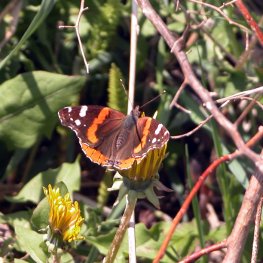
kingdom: Animalia
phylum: Arthropoda
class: Insecta
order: Lepidoptera
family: Nymphalidae
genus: Vanessa
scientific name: Vanessa atalanta
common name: Red Admiral
